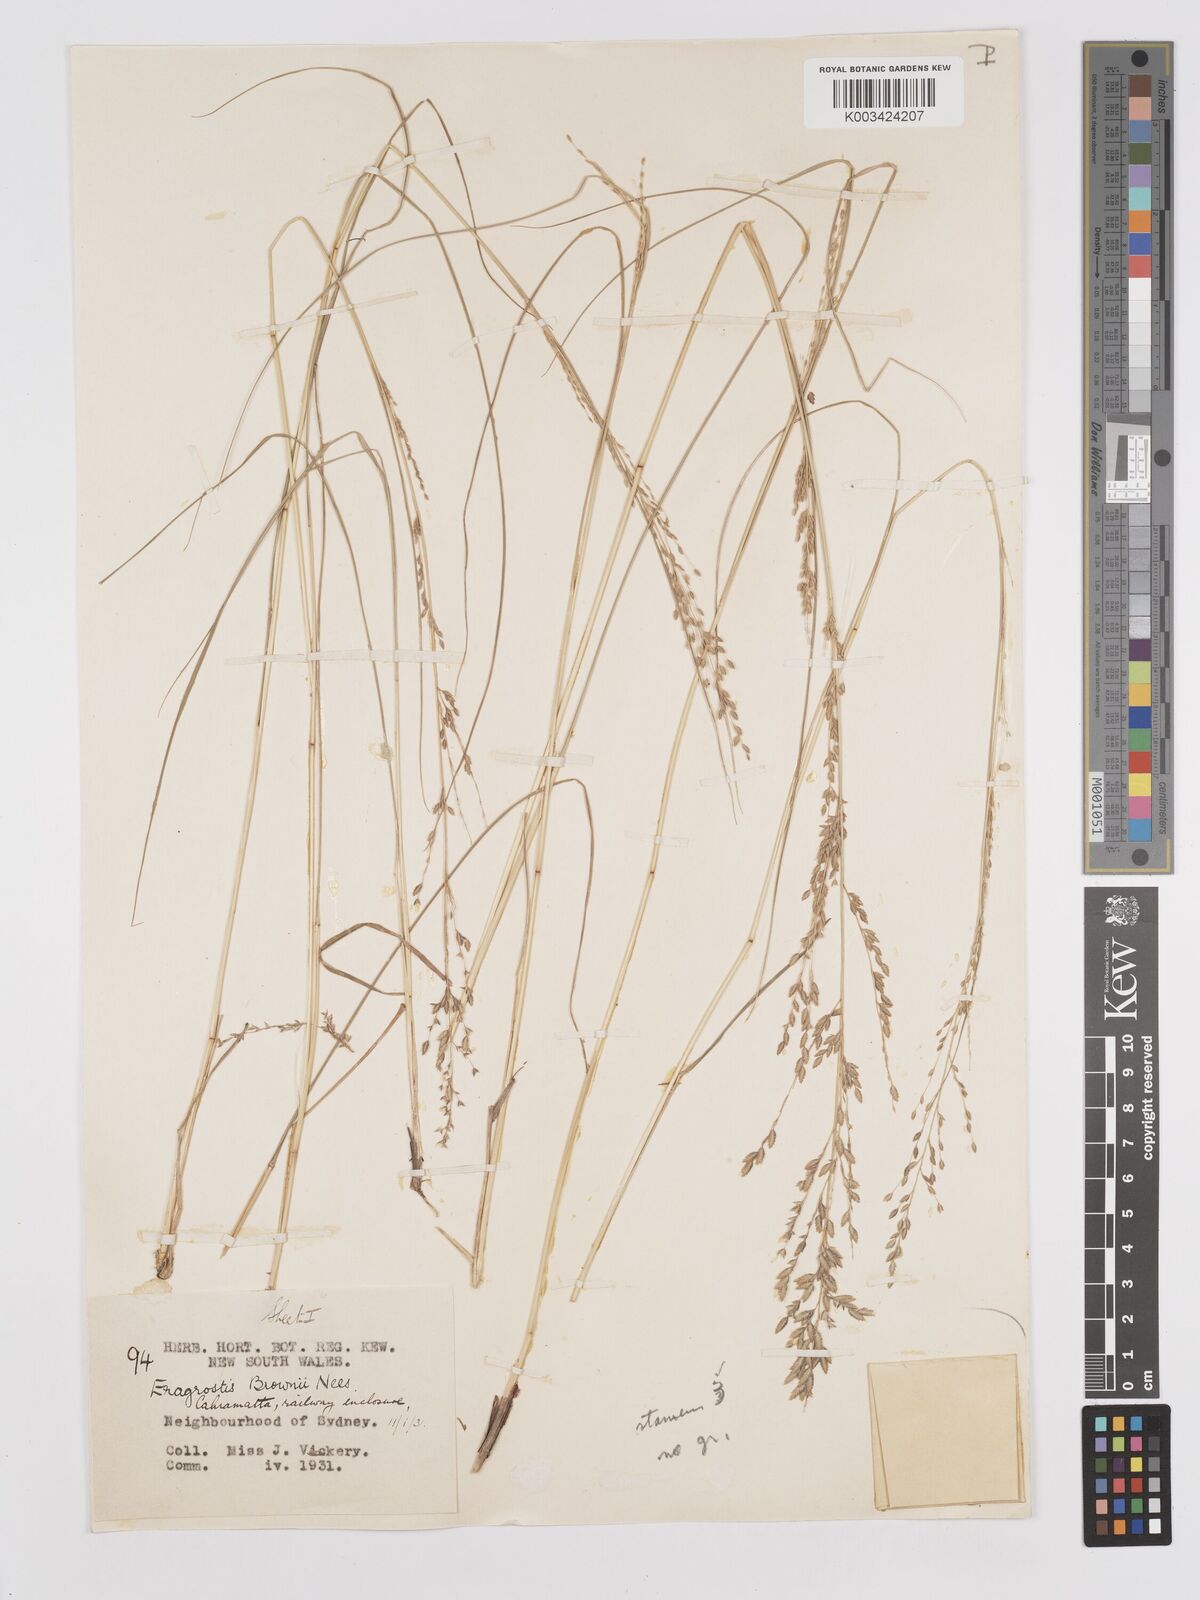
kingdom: Plantae
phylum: Tracheophyta
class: Liliopsida
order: Poales
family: Poaceae
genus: Eragrostis
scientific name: Eragrostis brownii
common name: Lovegrass
